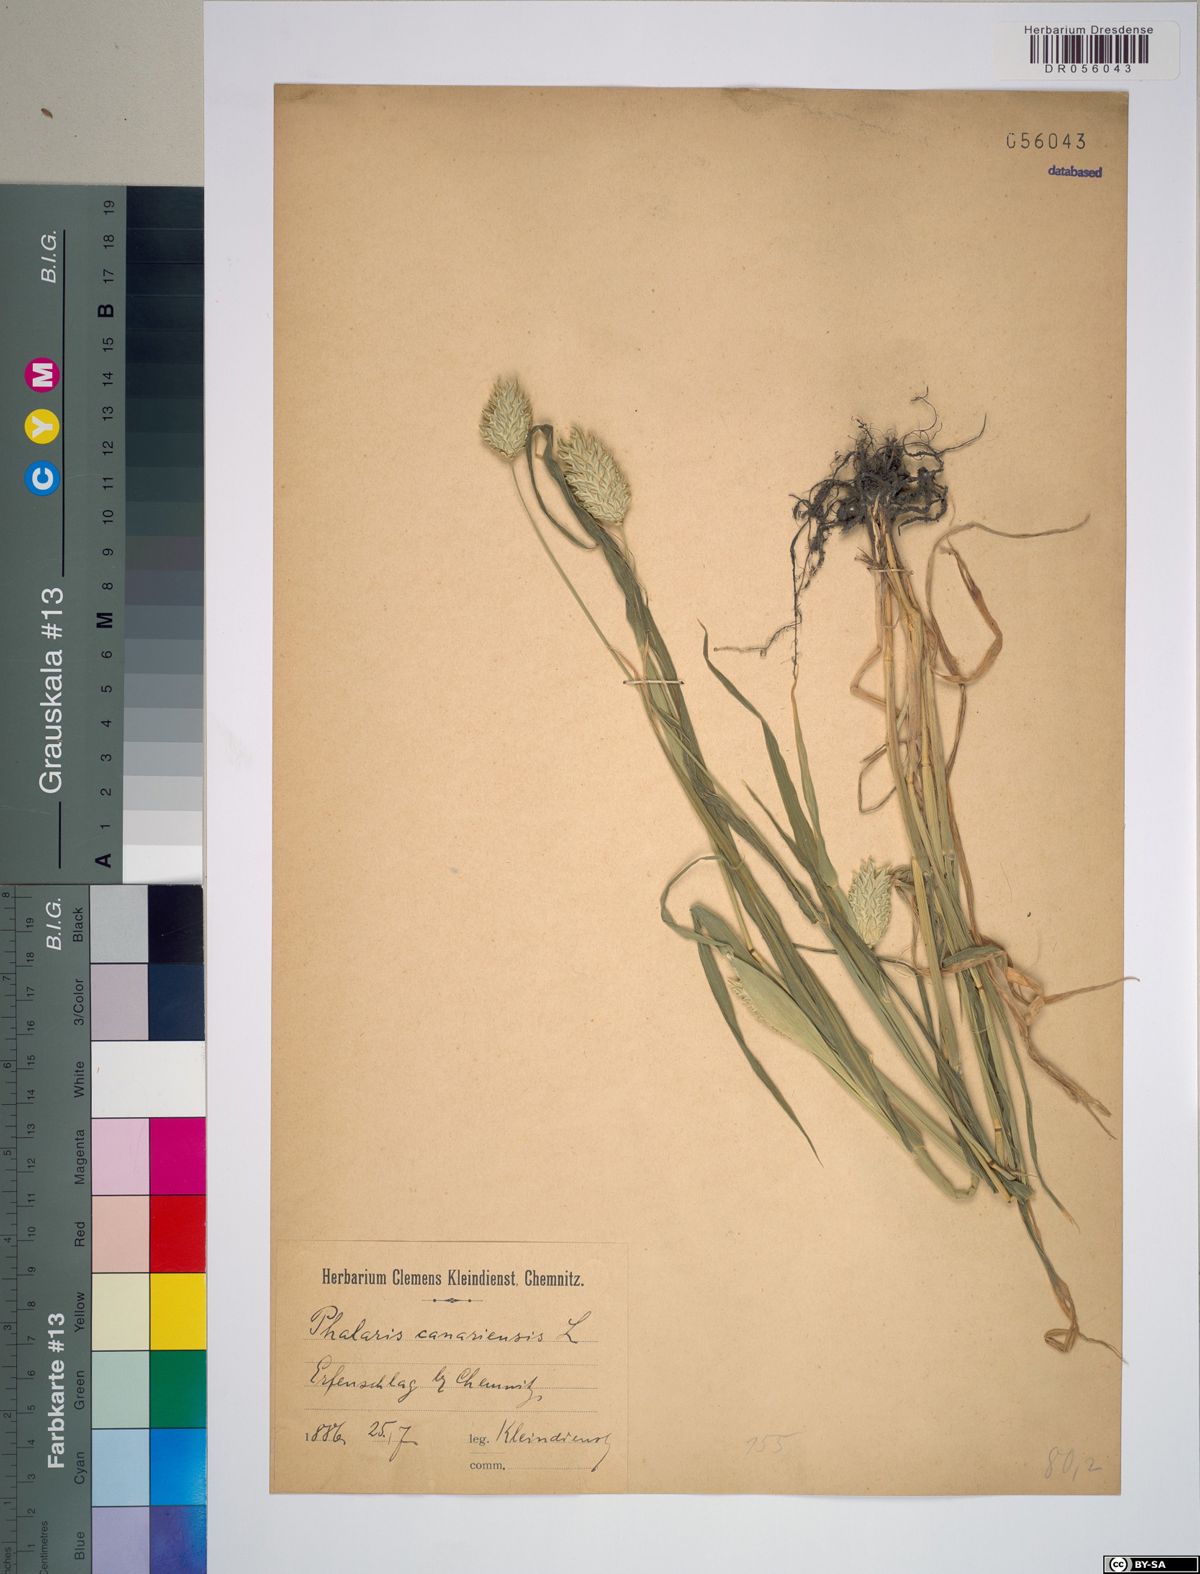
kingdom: Plantae
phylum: Tracheophyta
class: Liliopsida
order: Poales
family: Poaceae
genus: Phalaris
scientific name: Phalaris canariensis
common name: Annual canarygrass
